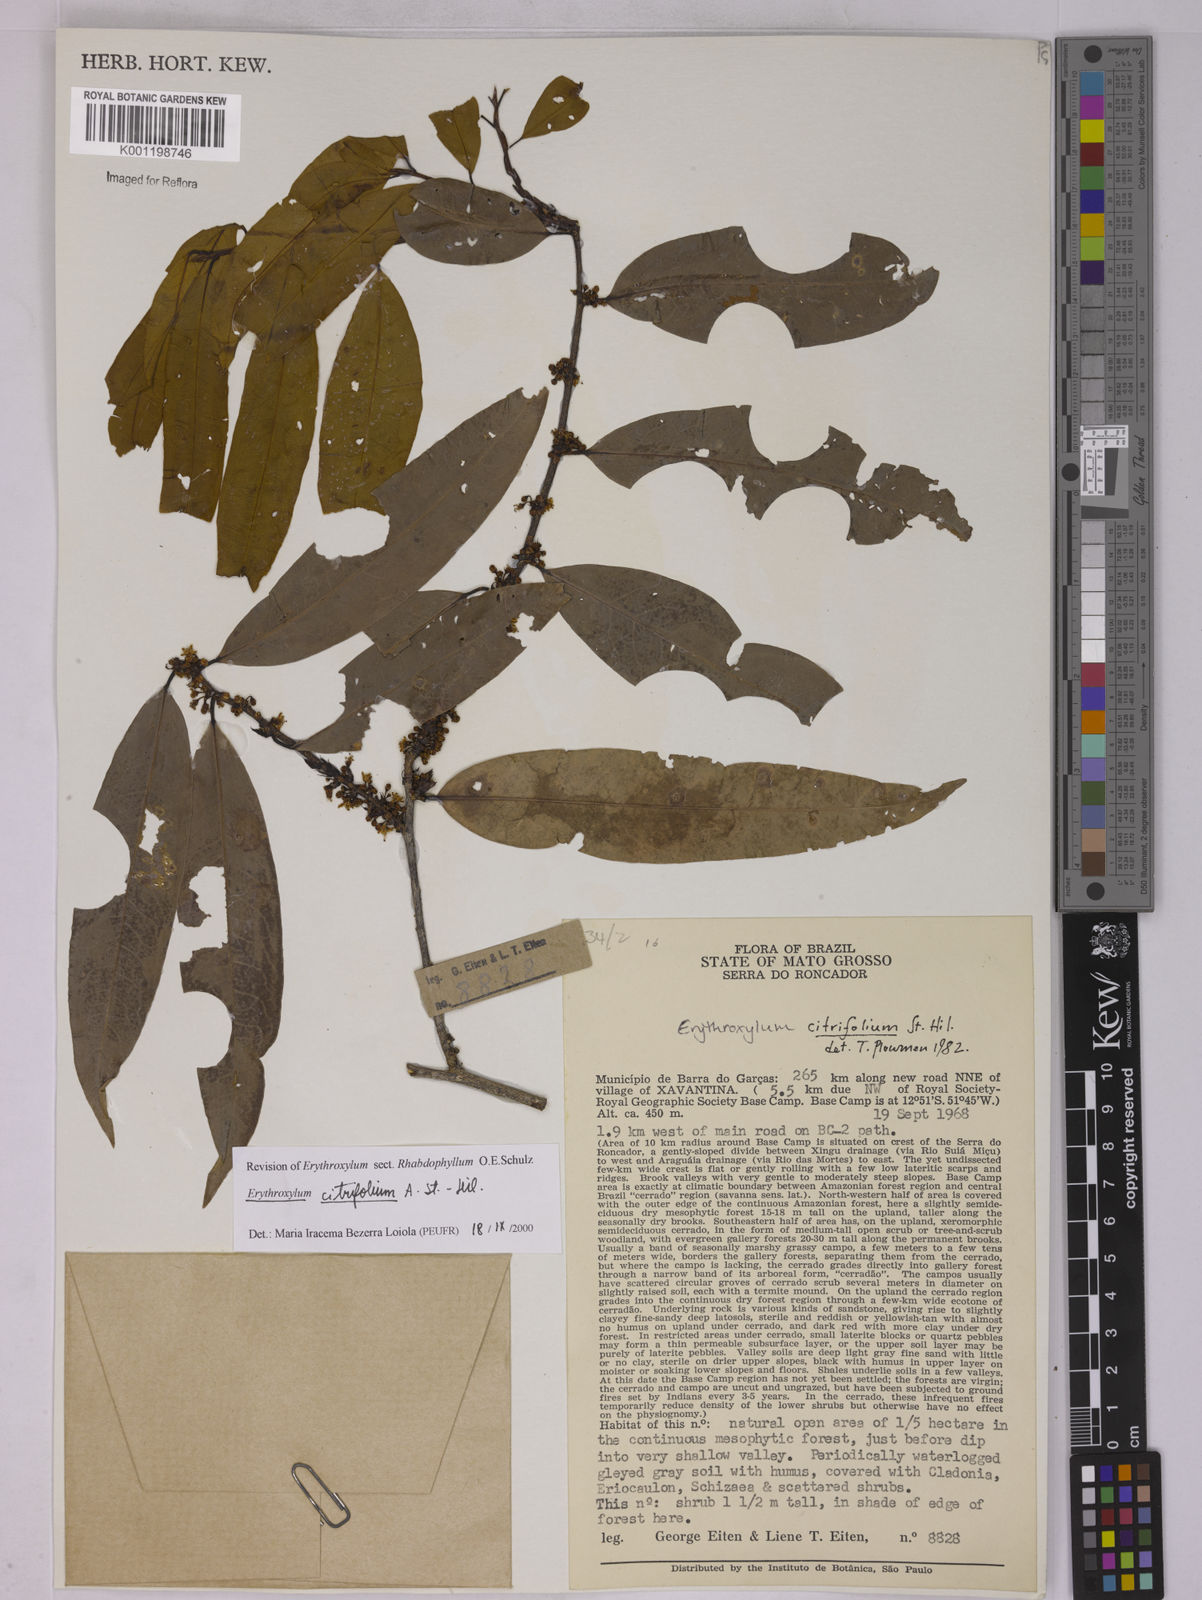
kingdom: Plantae
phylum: Tracheophyta
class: Magnoliopsida
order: Malpighiales
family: Erythroxylaceae
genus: Erythroxylum
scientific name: Erythroxylum citrifolium
